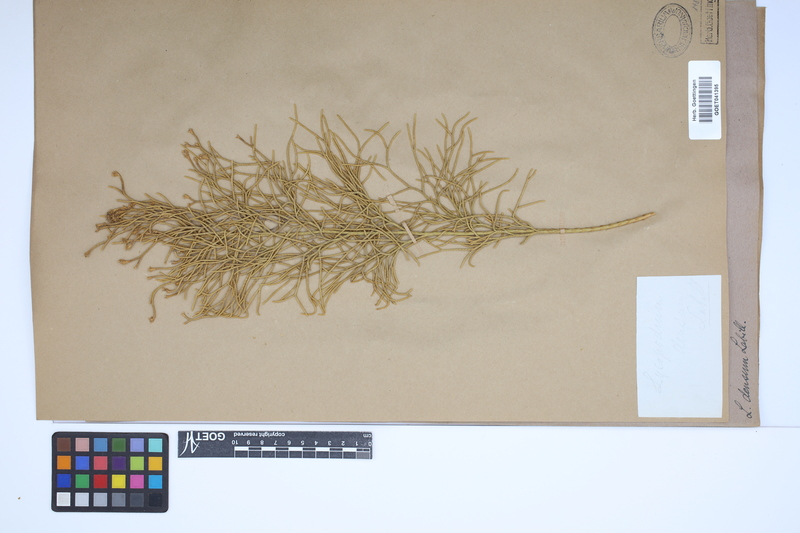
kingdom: Plantae
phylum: Tracheophyta
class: Lycopodiopsida
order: Lycopodiales
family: Lycopodiaceae
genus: Pseudolycopodium
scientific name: Pseudolycopodium densum
